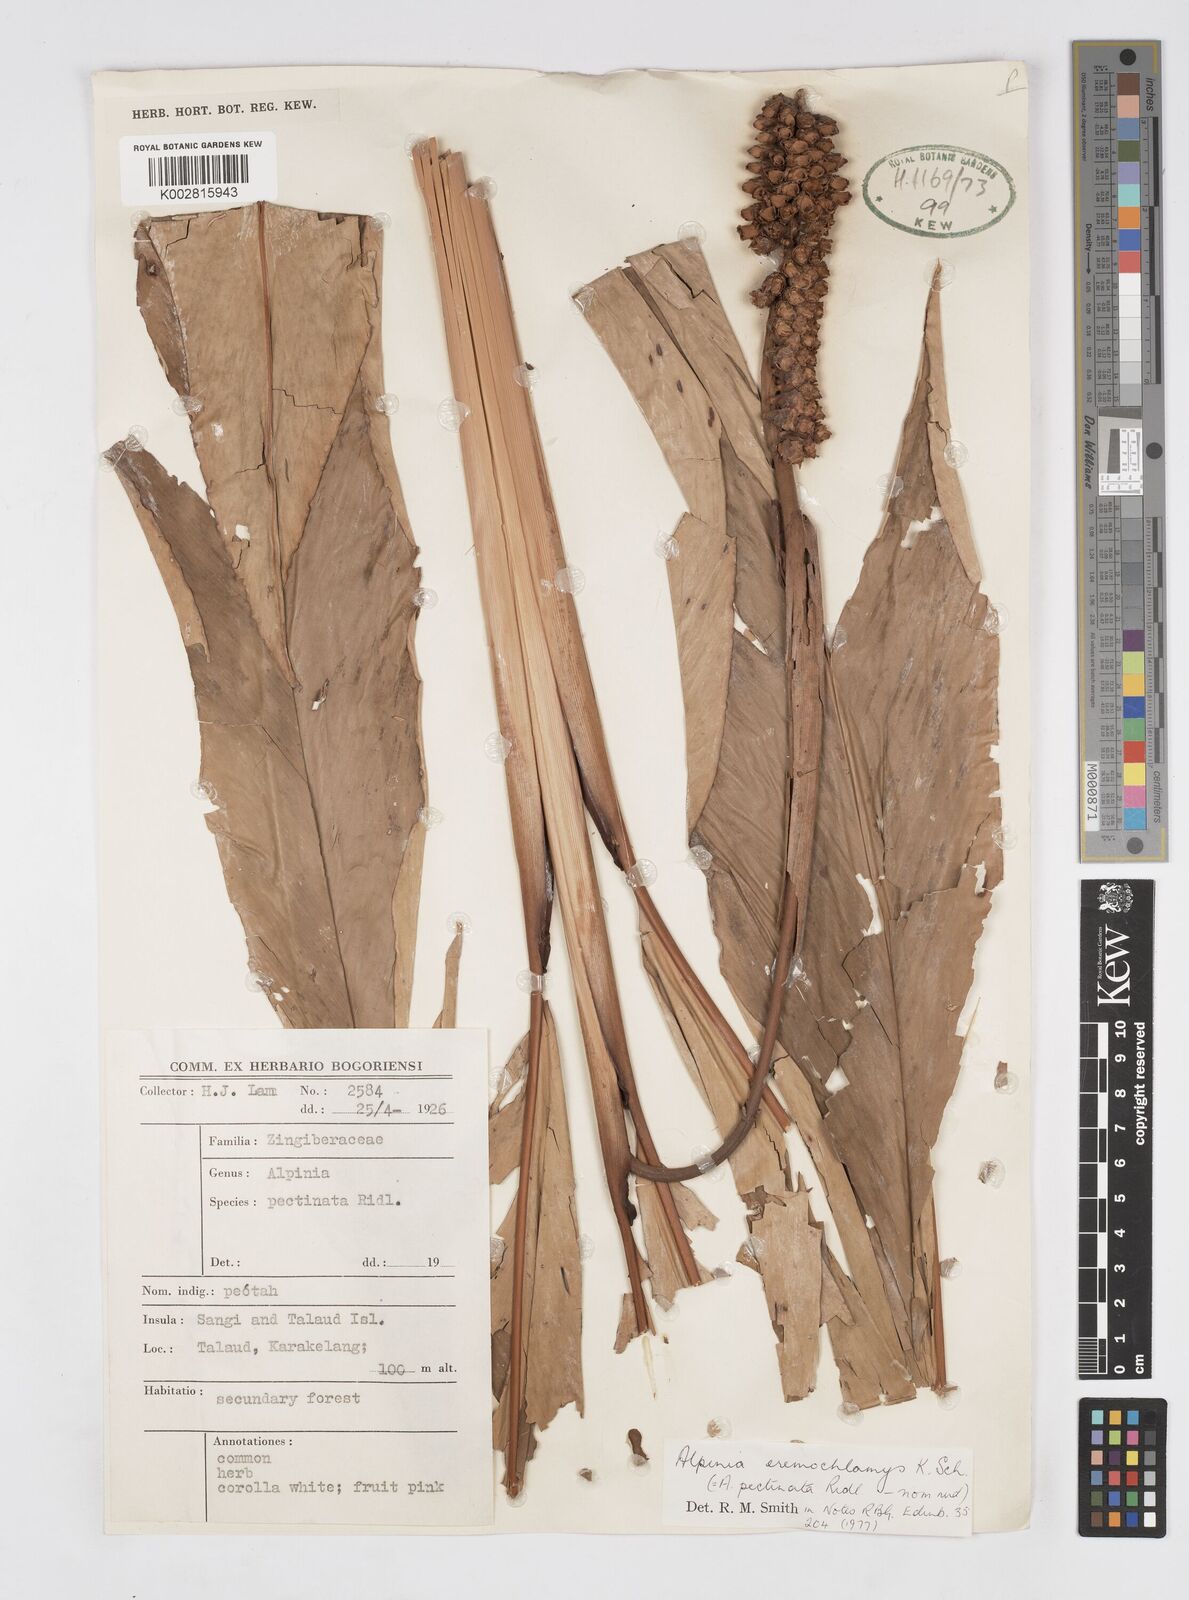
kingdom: Plantae
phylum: Tracheophyta
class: Liliopsida
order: Zingiberales
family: Zingiberaceae
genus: Alpinia
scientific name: Alpinia eremochlamys
